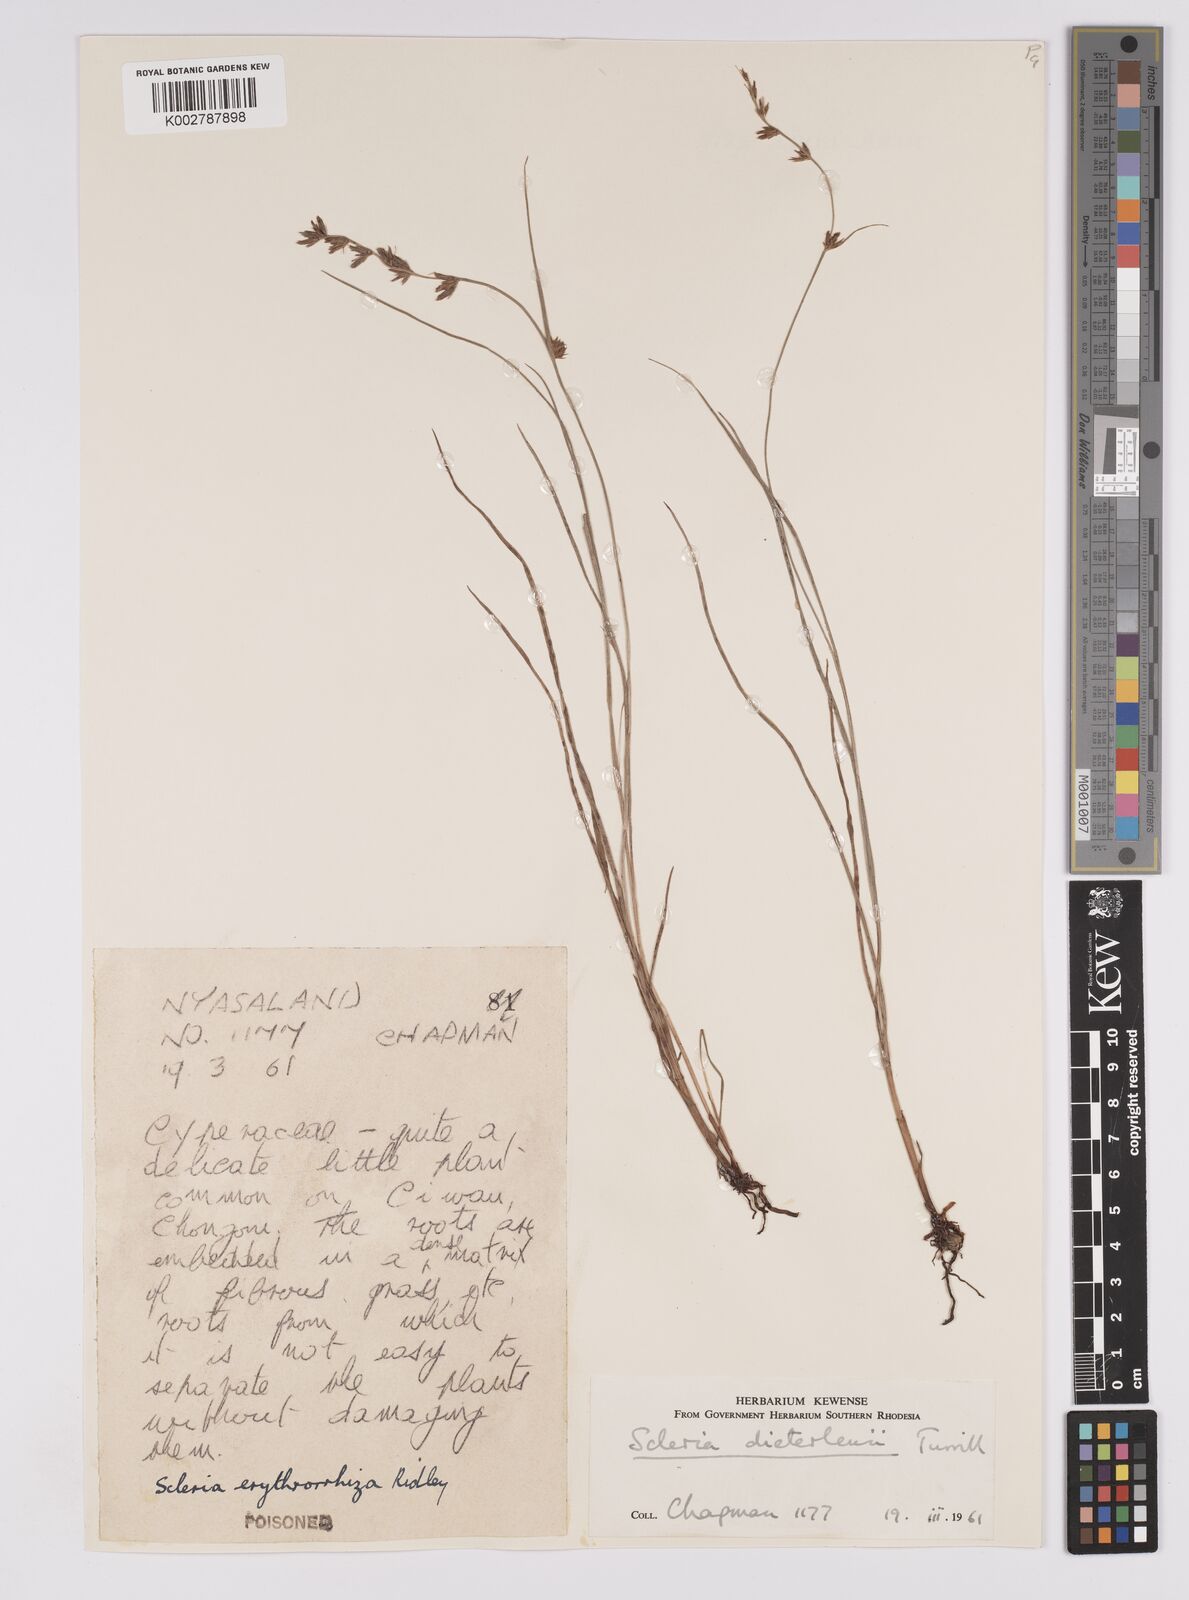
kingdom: Plantae
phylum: Tracheophyta
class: Liliopsida
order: Poales
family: Cyperaceae
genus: Scleria
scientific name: Scleria flexuosa
